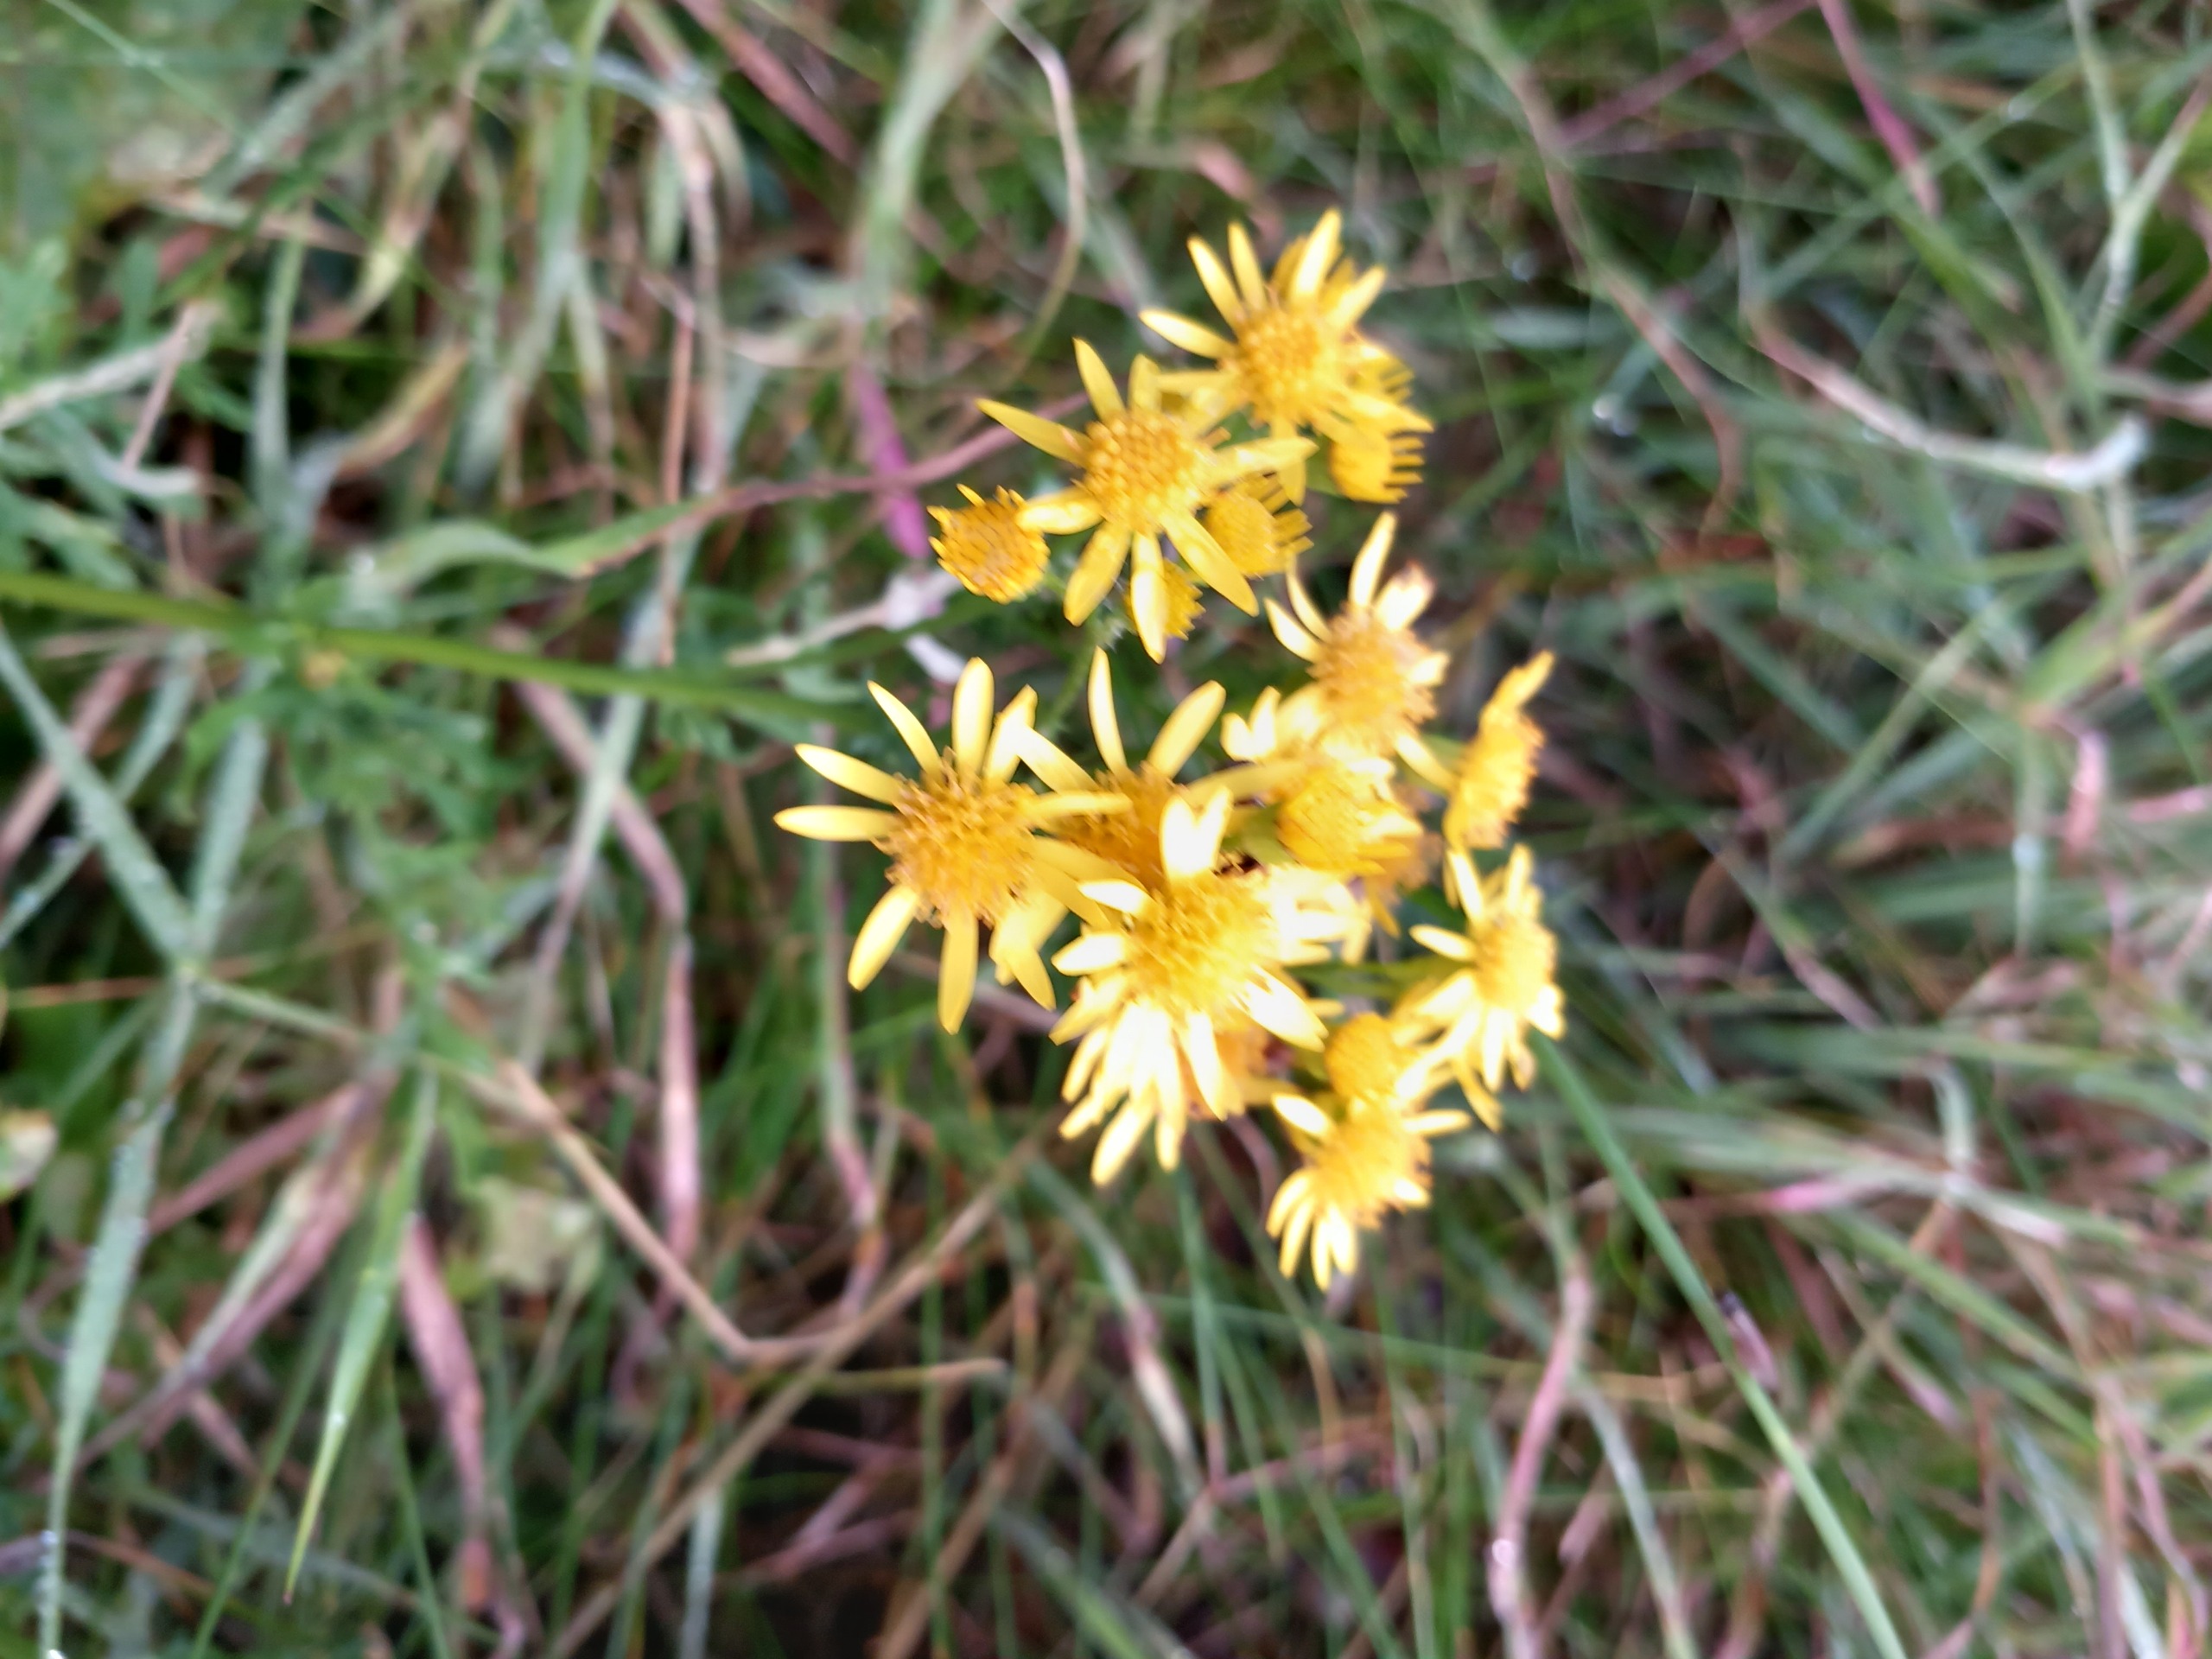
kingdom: Plantae
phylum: Tracheophyta
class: Magnoliopsida
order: Asterales
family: Asteraceae
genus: Jacobaea
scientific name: Jacobaea vulgaris
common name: Eng-brandbæger
